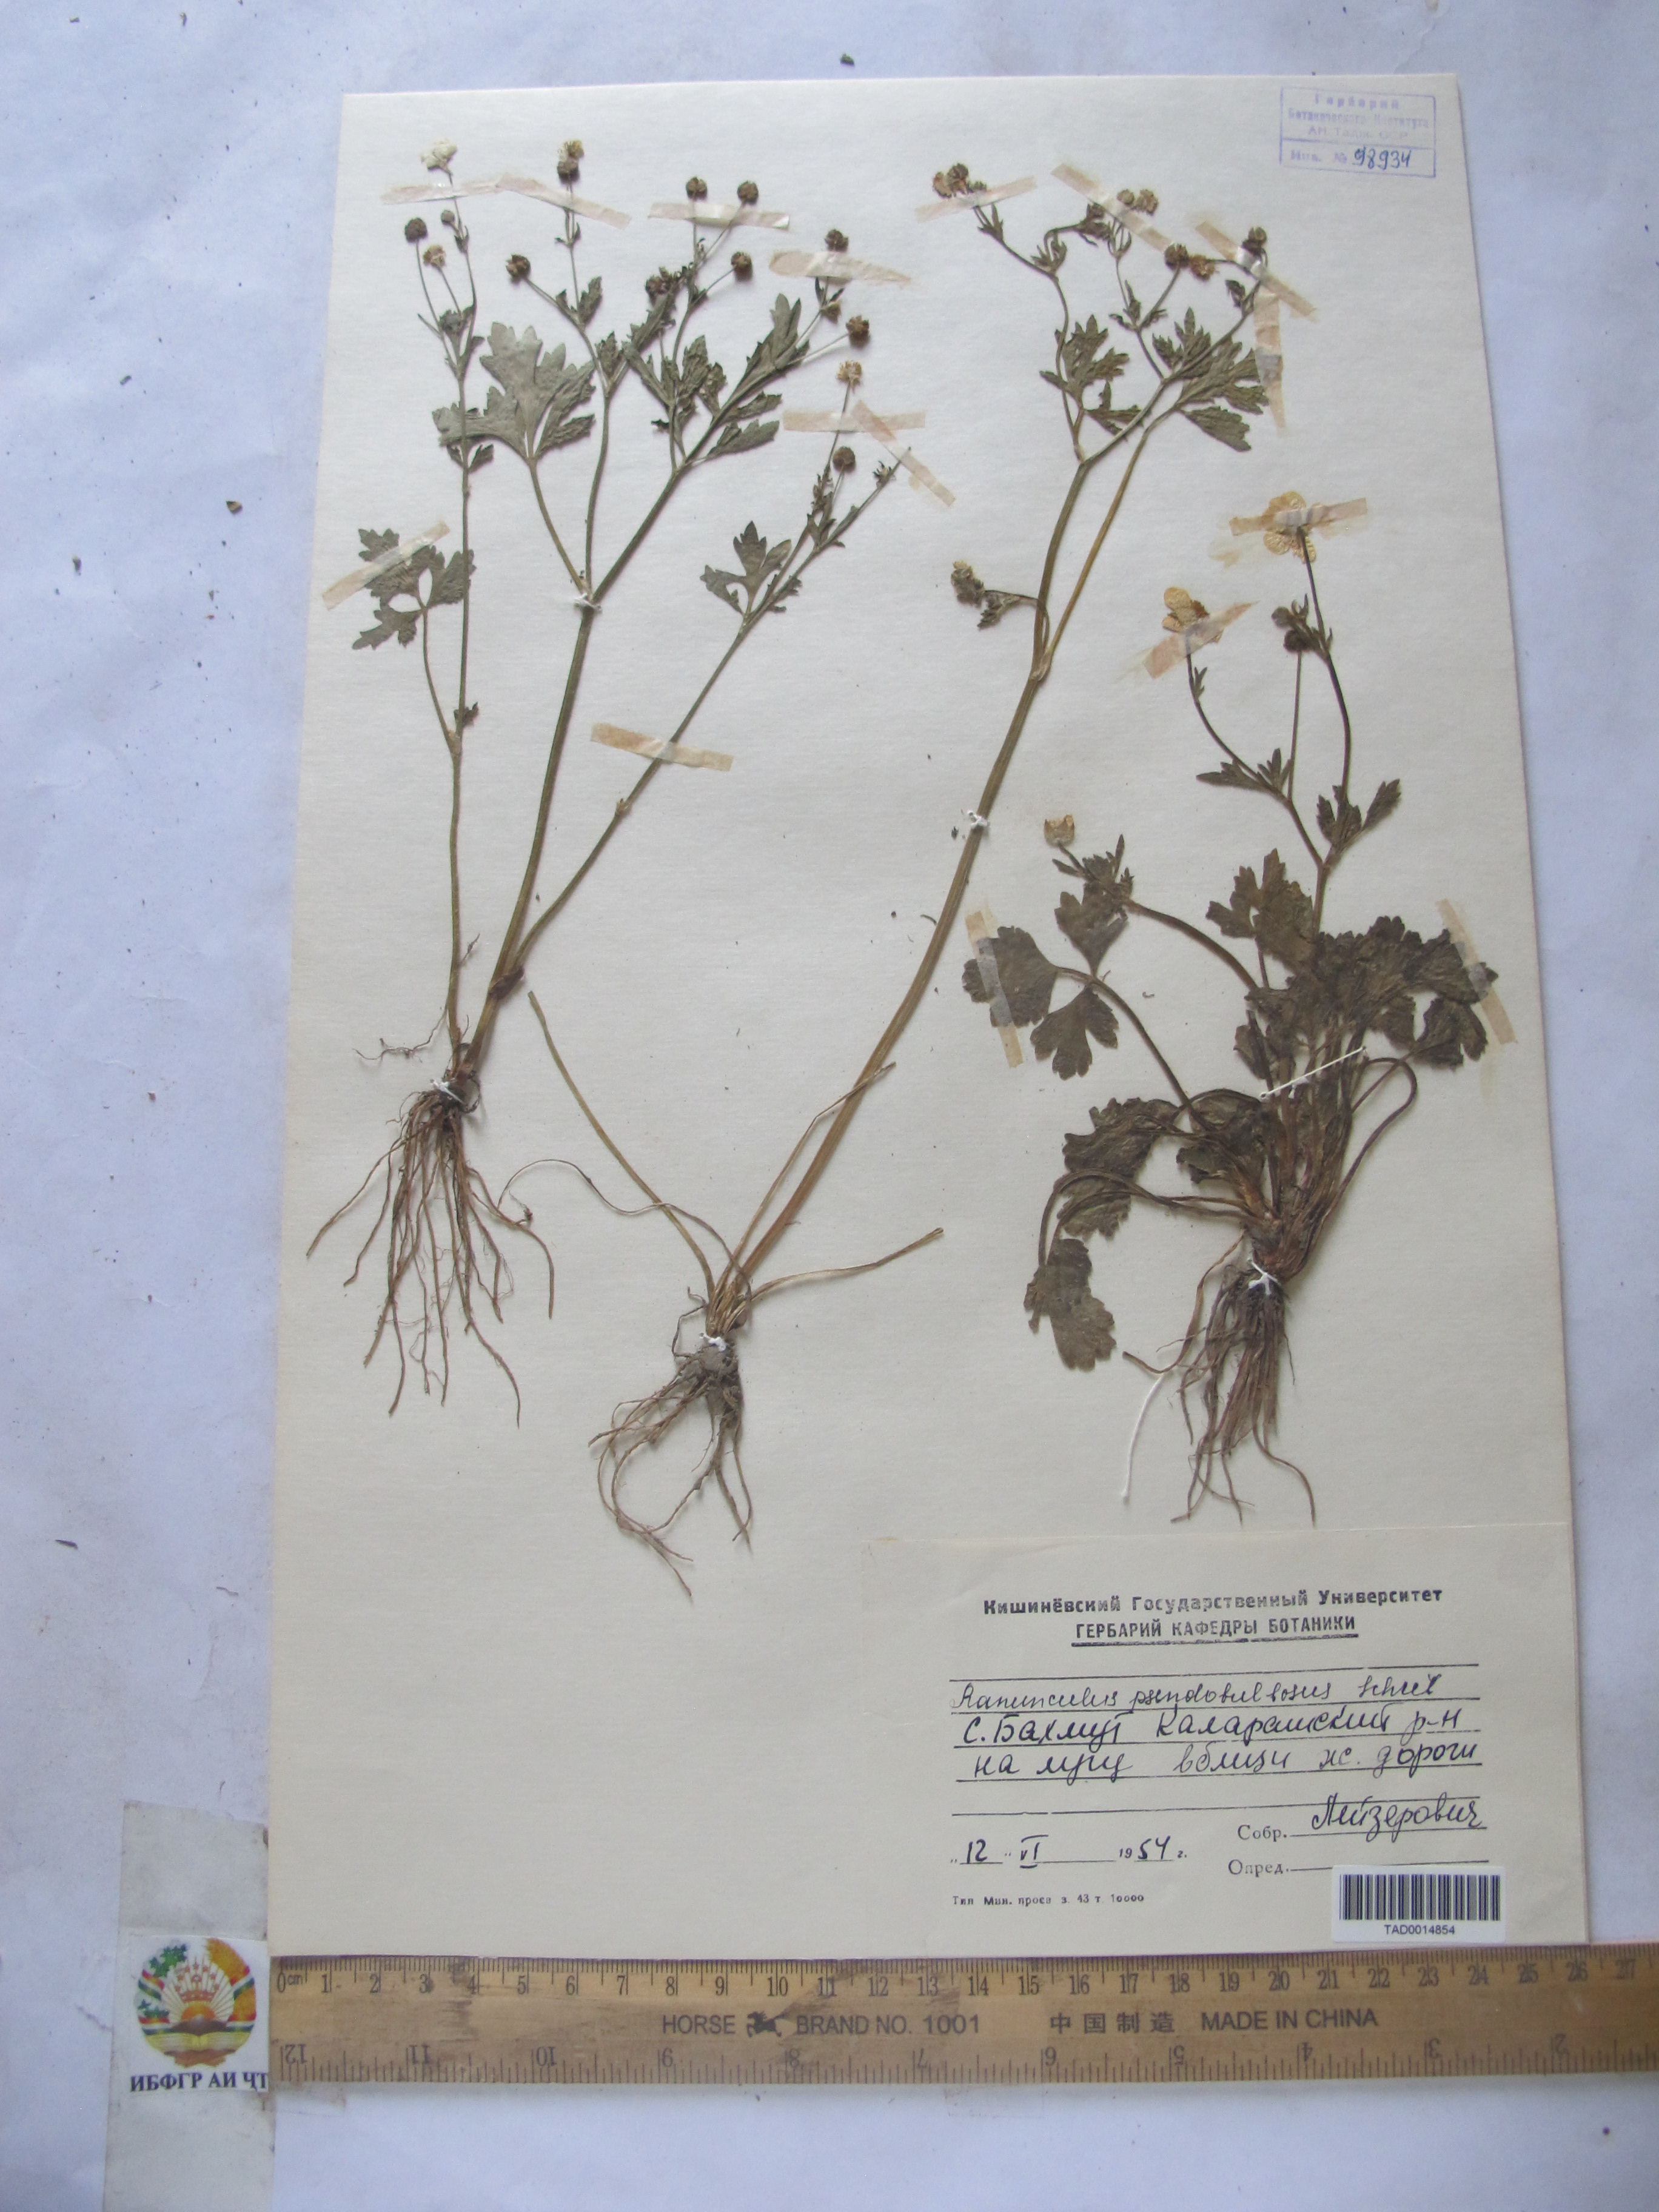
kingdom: Plantae
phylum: Tracheophyta
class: Magnoliopsida
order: Ranunculales
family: Ranunculaceae
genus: Ranunculus
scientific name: Ranunculus sardous
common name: Hairy buttercup
